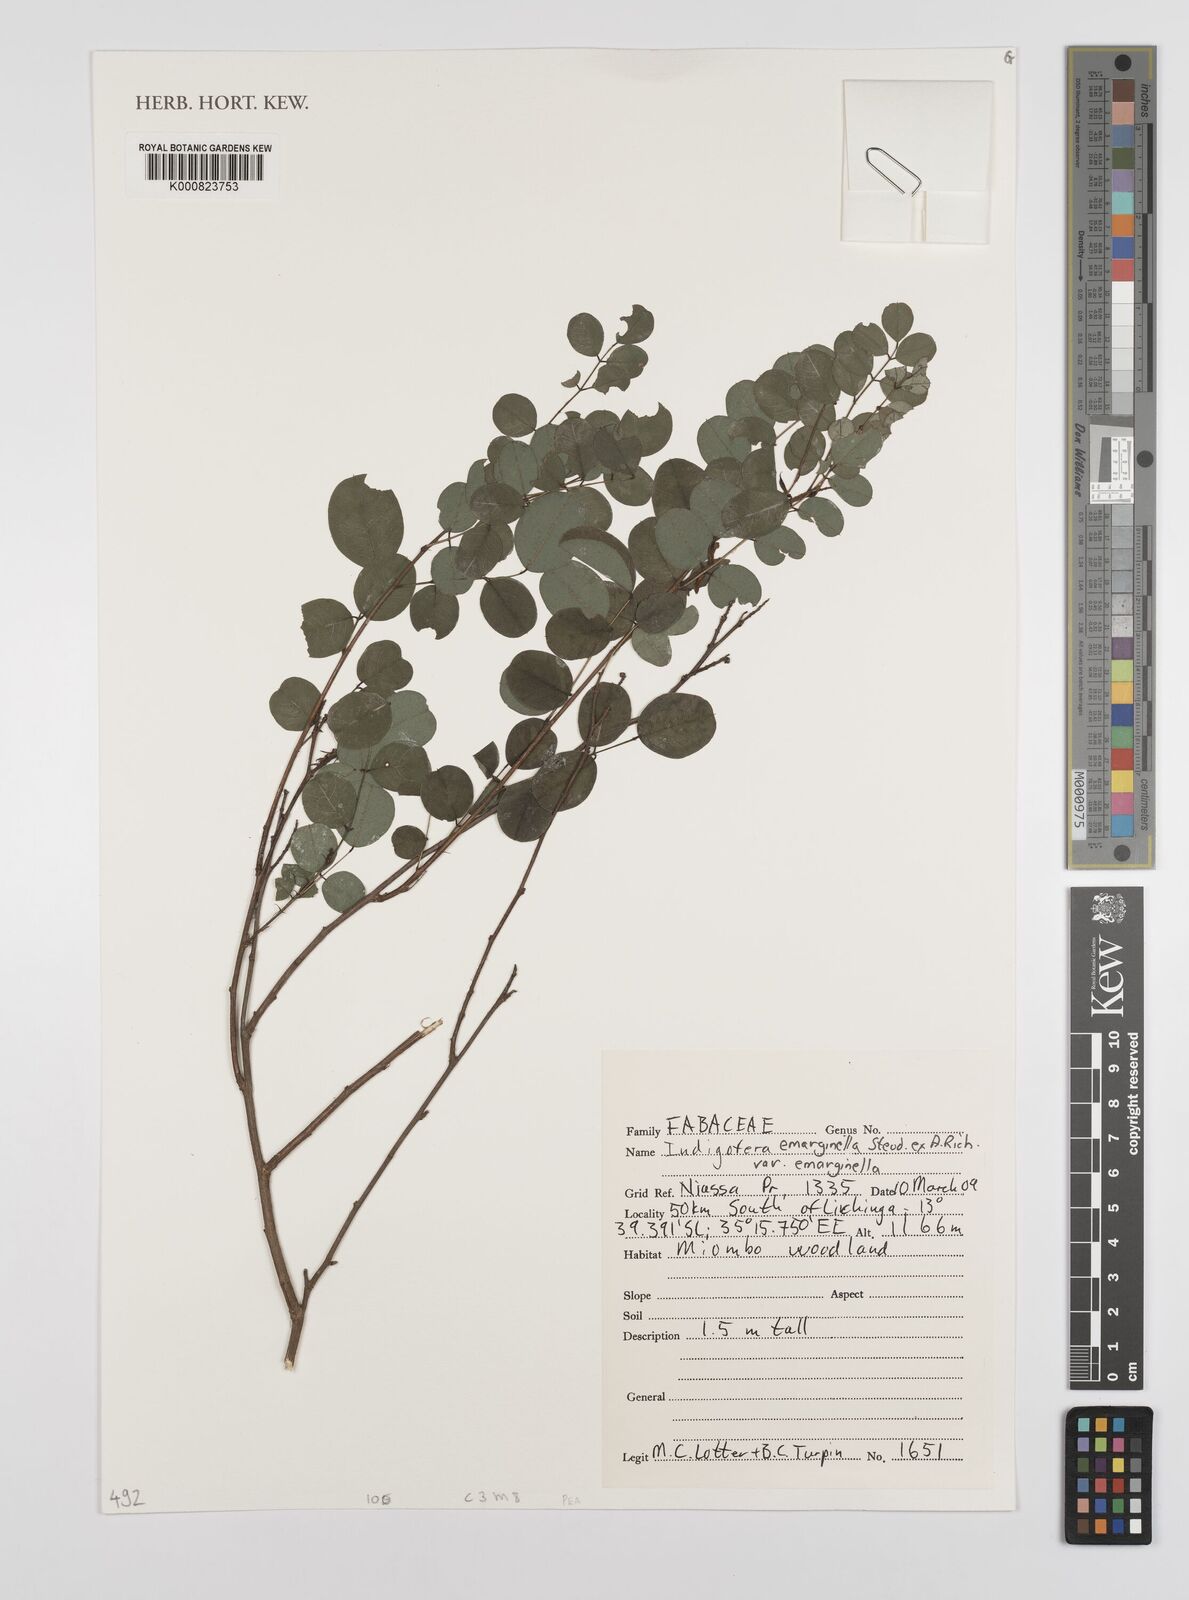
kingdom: Plantae
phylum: Tracheophyta
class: Magnoliopsida
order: Fabales
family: Fabaceae
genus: Indigofera
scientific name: Indigofera emarginella
